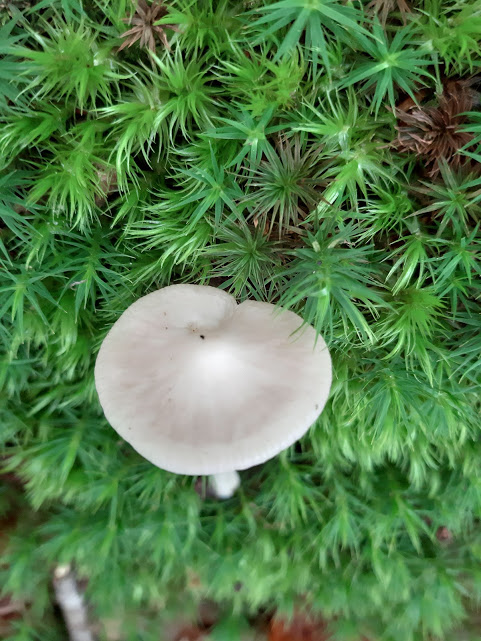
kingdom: Fungi
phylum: Basidiomycota
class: Agaricomycetes
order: Agaricales
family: Physalacriaceae
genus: Hymenopellis
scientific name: Hymenopellis radicata
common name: almindelig pælerodshat
